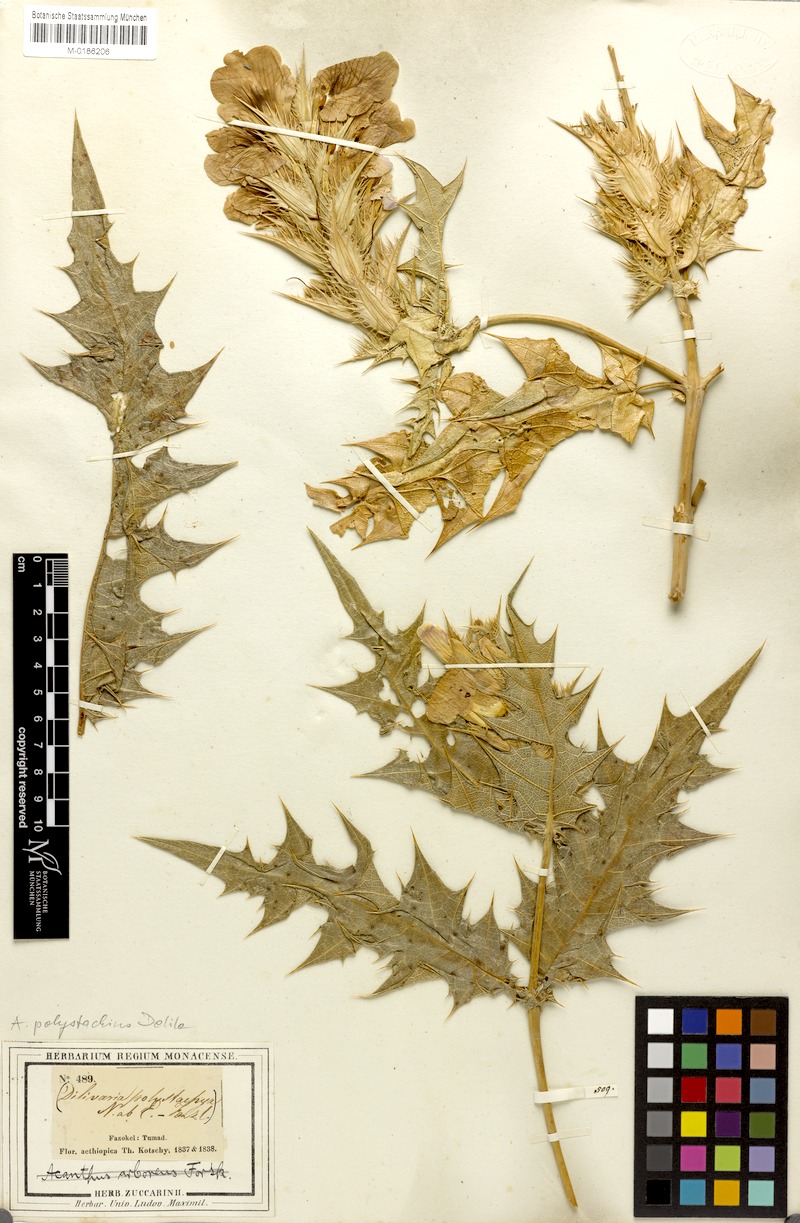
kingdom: Plantae
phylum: Tracheophyta
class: Magnoliopsida
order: Lamiales
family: Acanthaceae
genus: Acanthus
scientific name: Acanthus polystachyus
